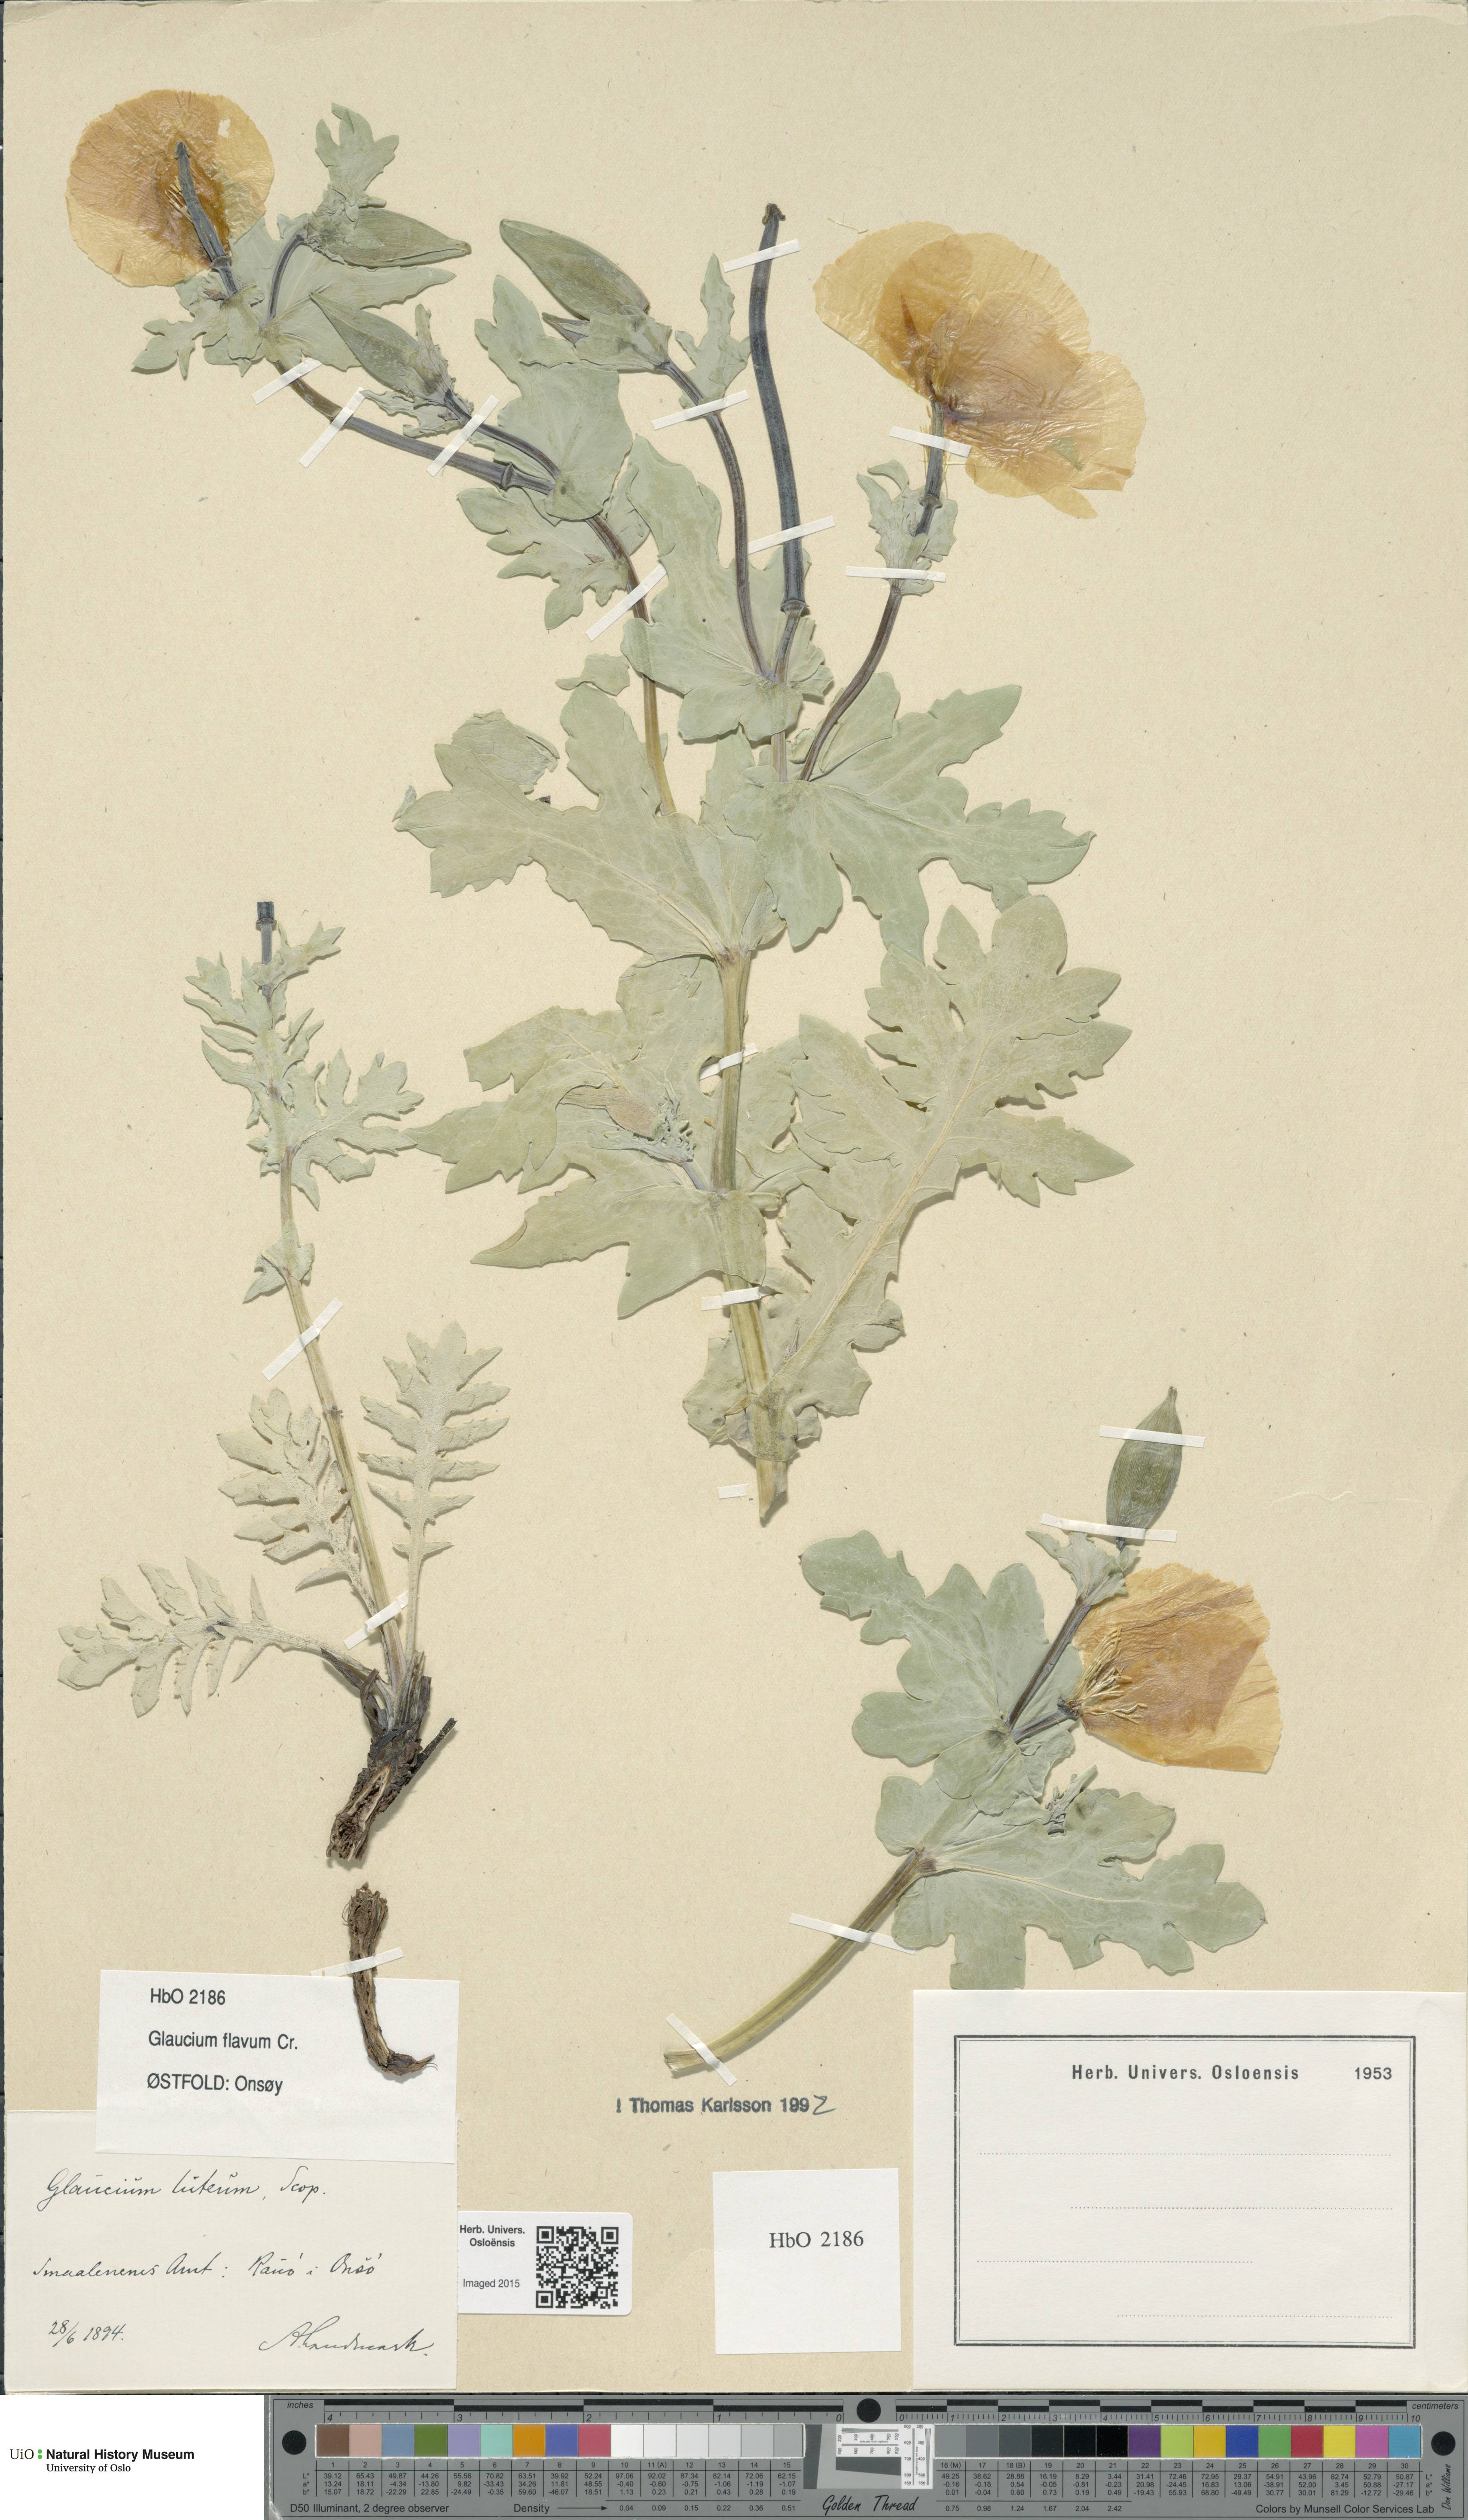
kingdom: Plantae
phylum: Tracheophyta
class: Magnoliopsida
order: Ranunculales
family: Papaveraceae
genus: Glaucium
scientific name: Glaucium flavum
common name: Yellow horned-poppy
